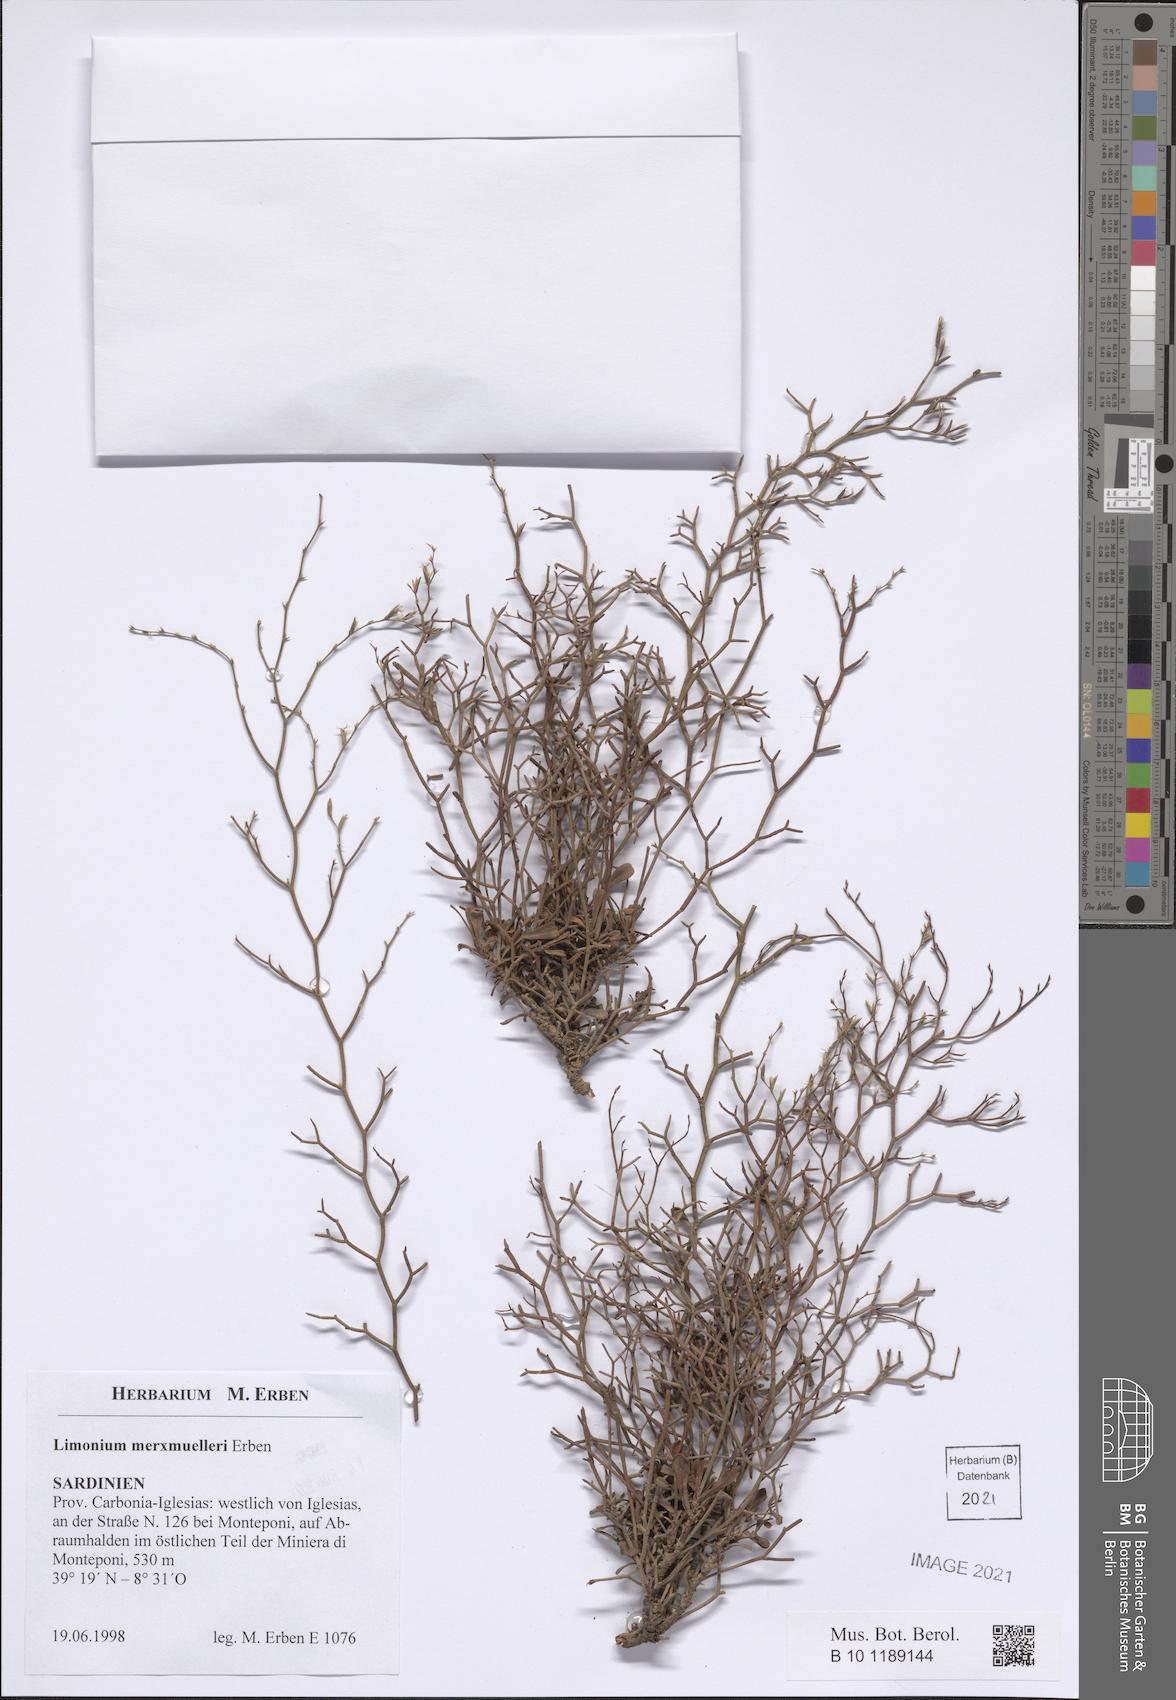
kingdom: Plantae
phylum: Tracheophyta
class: Magnoliopsida
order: Caryophyllales
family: Plumbaginaceae
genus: Limonium
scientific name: Limonium merxmuelleri
